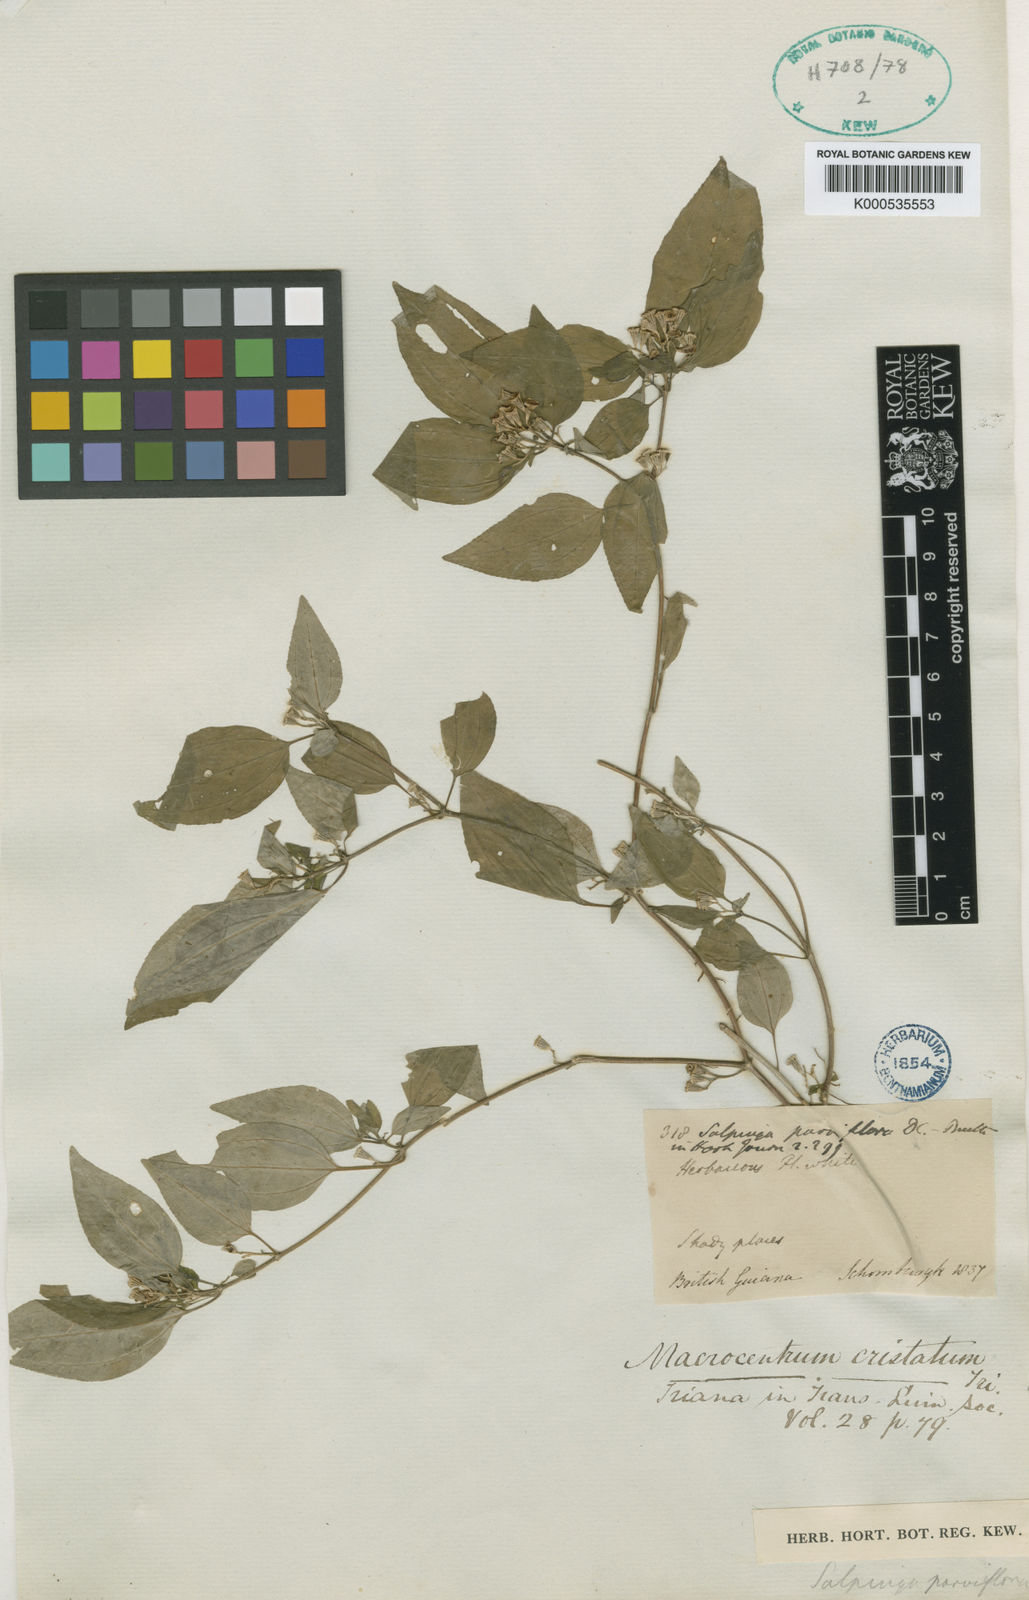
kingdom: Plantae
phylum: Tracheophyta
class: Magnoliopsida
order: Myrtales
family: Melastomataceae
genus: Macrocentrum
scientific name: Macrocentrum cristatum
